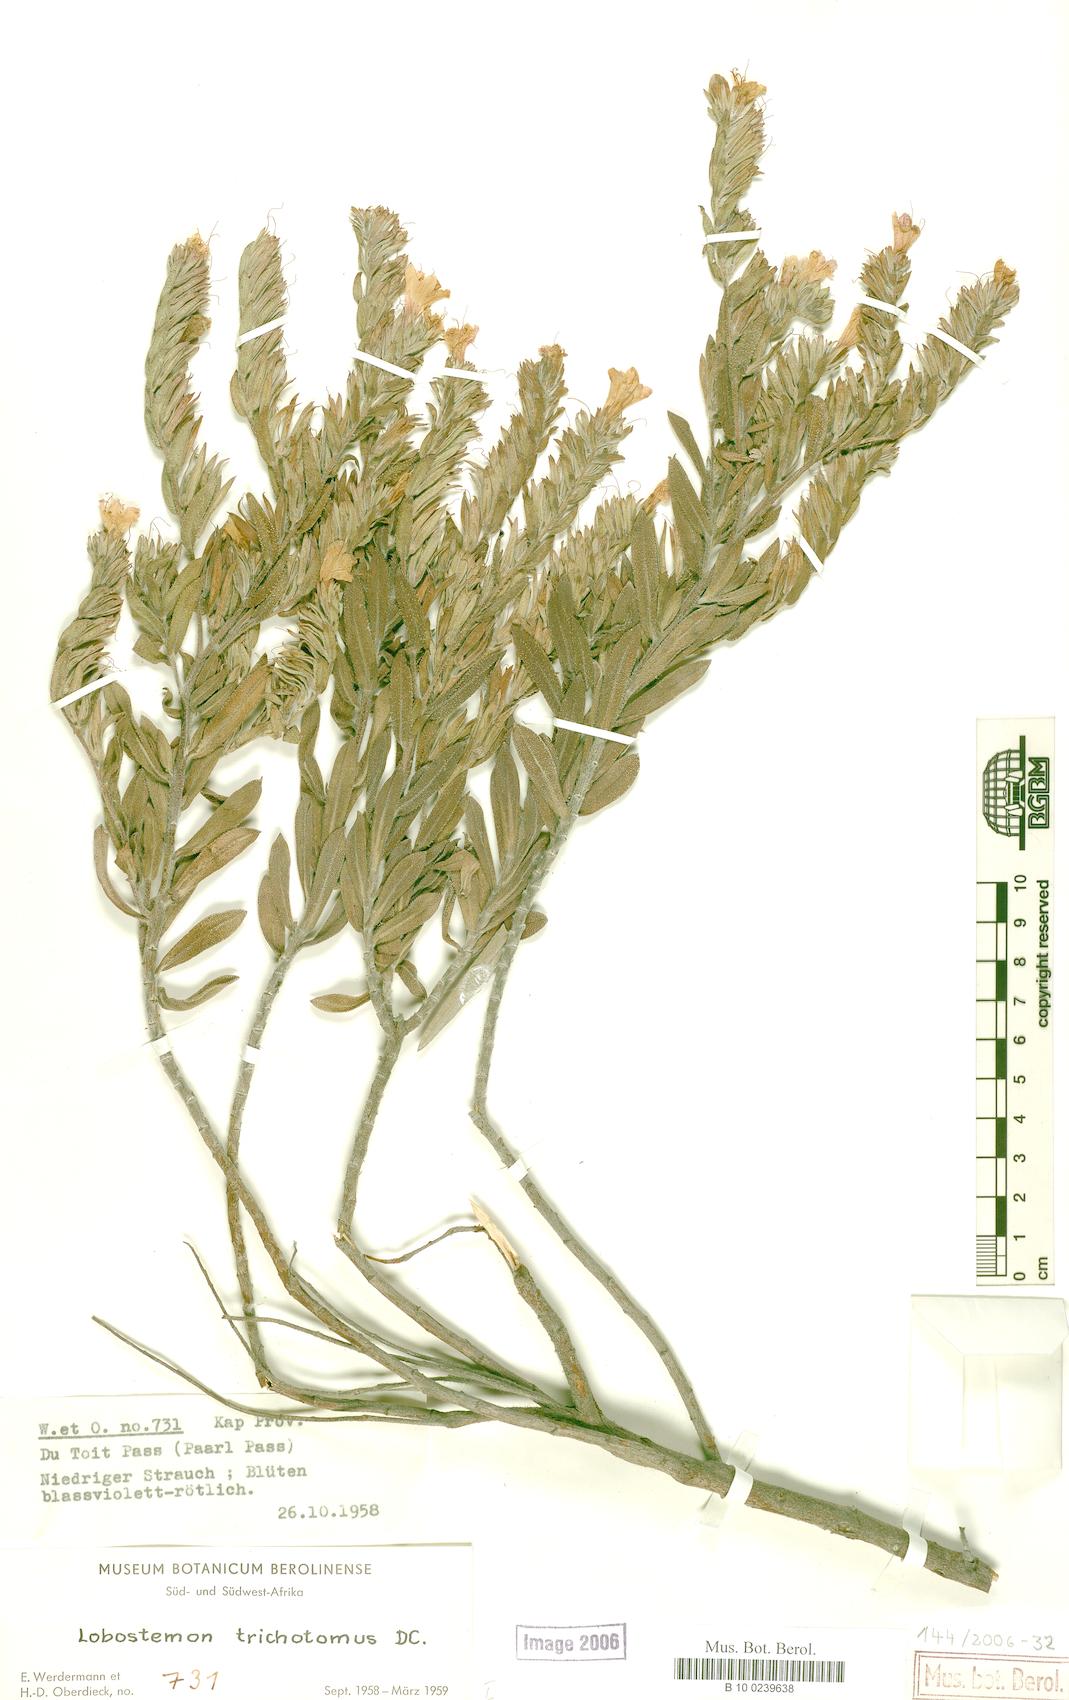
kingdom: Plantae
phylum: Tracheophyta
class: Magnoliopsida
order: Boraginales
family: Boraginaceae
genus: Lobostemon
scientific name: Lobostemon trichotomus
